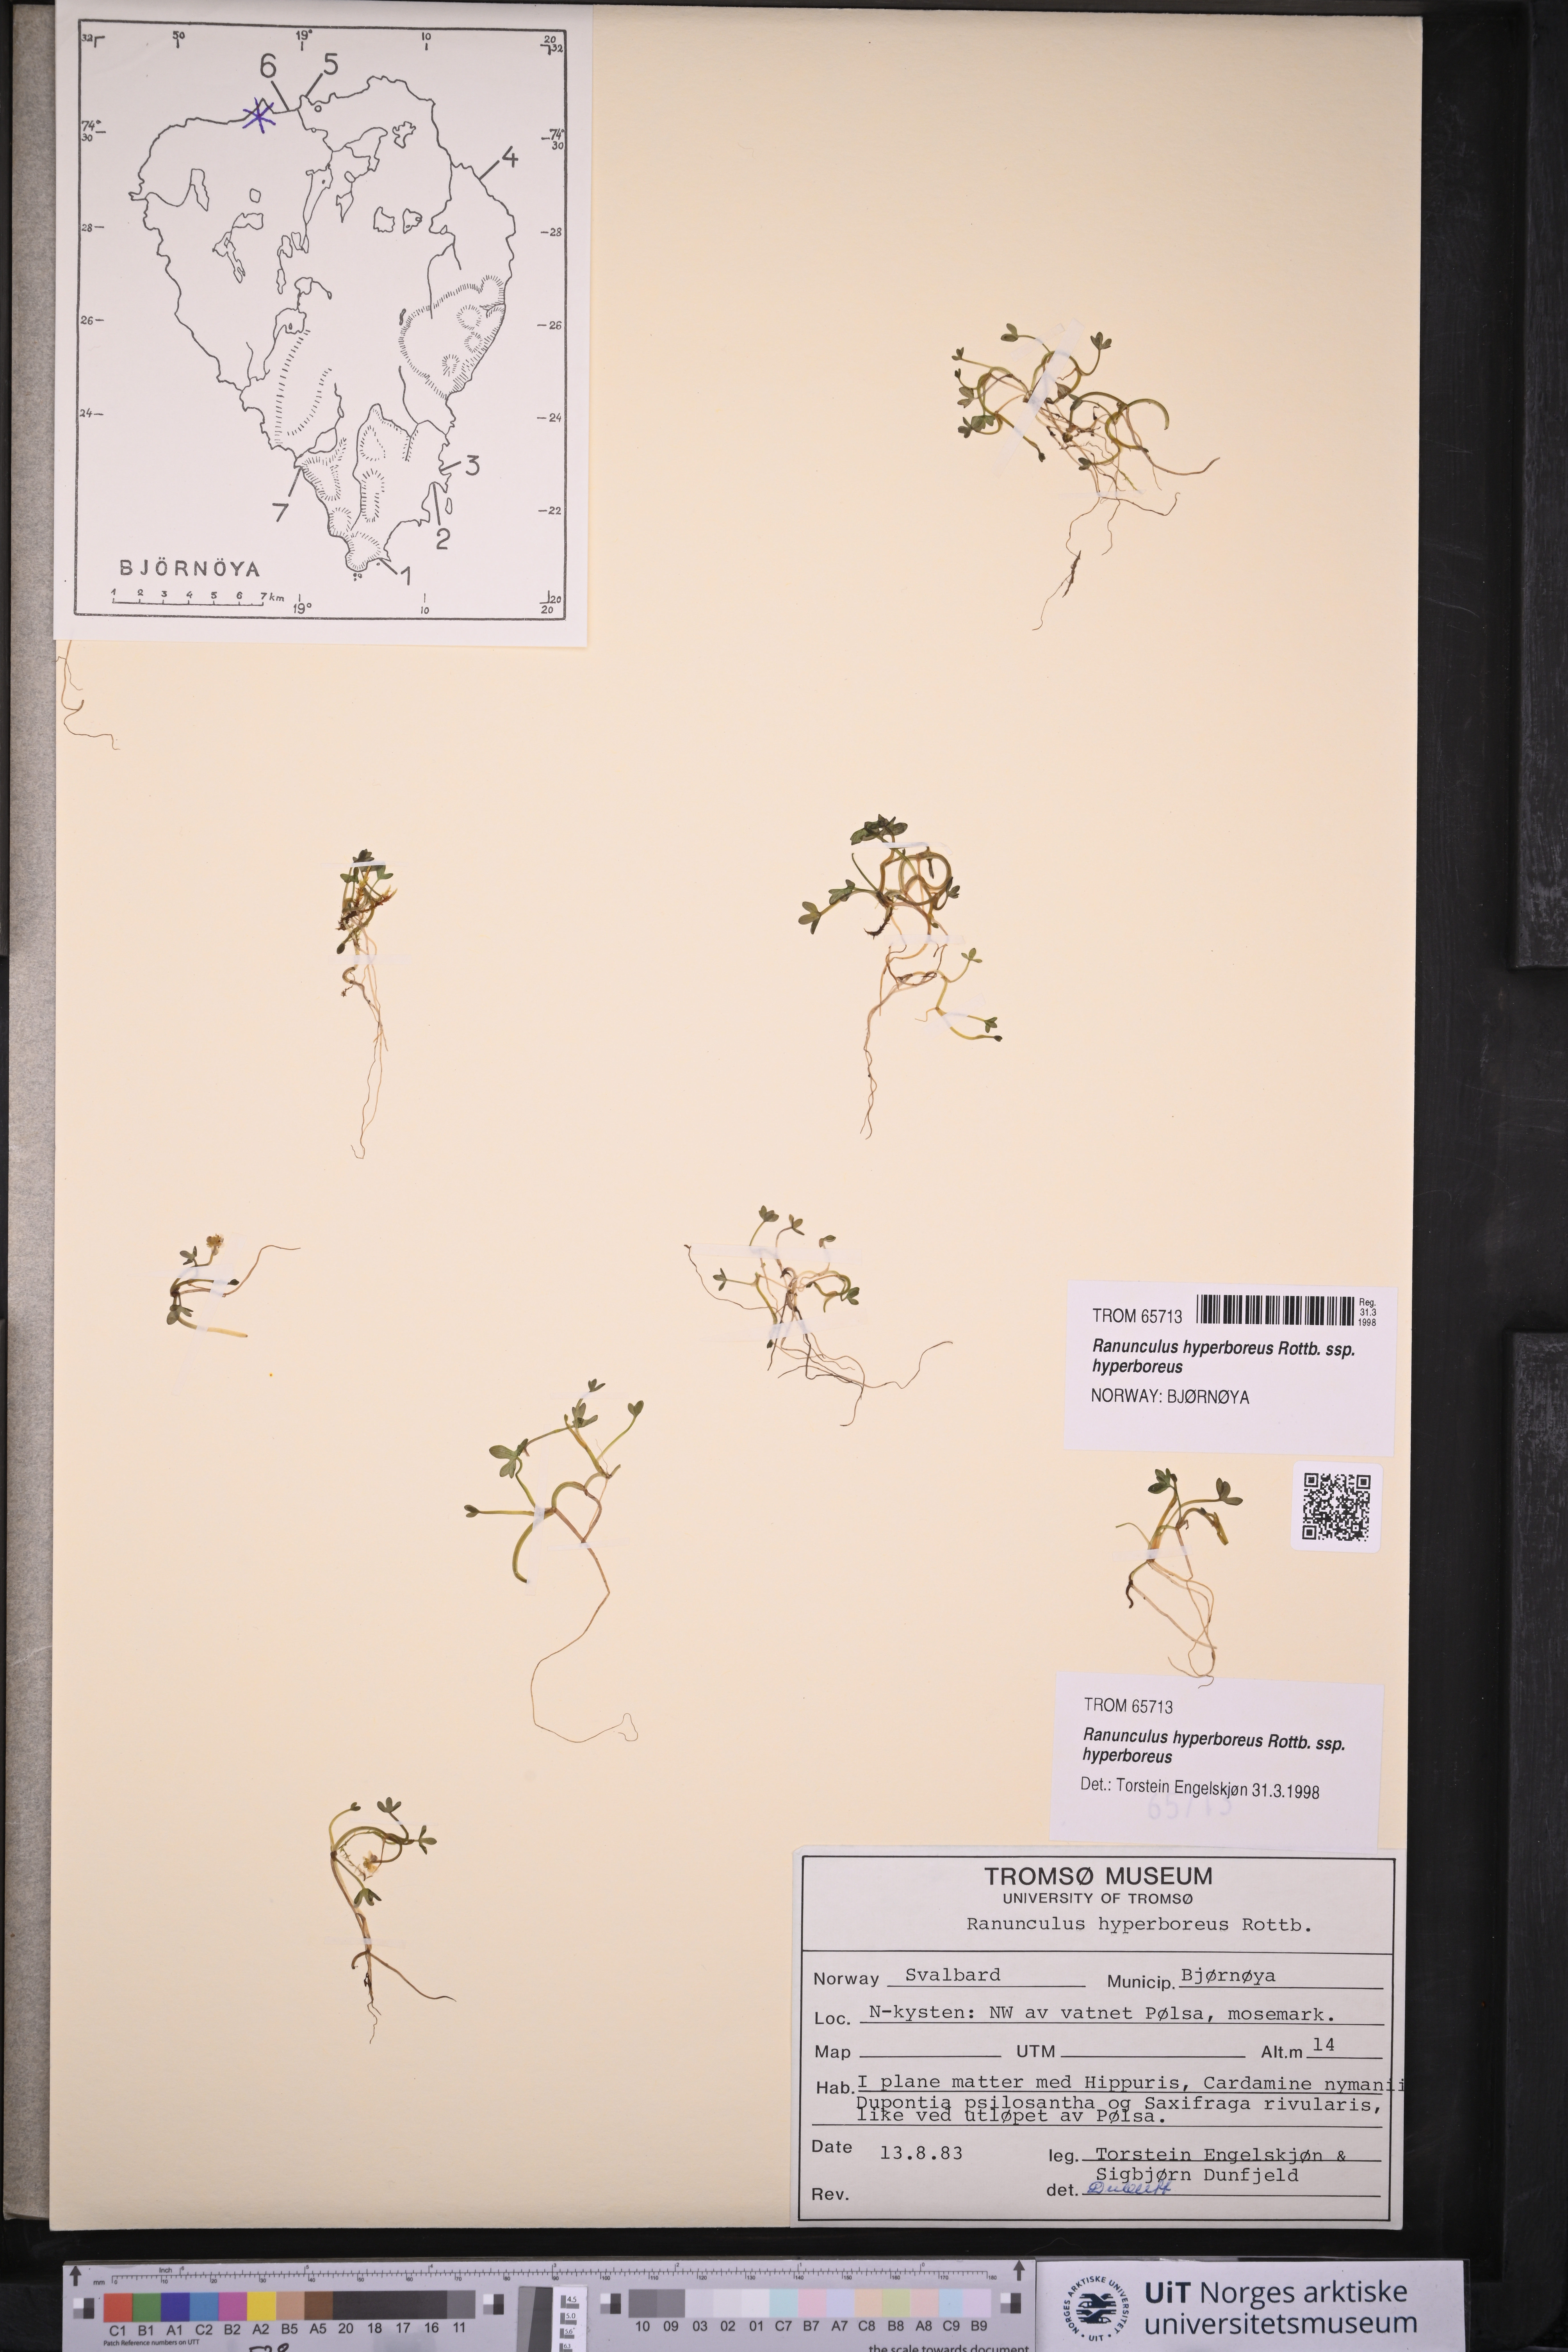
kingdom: Plantae
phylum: Tracheophyta
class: Magnoliopsida
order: Ranunculales
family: Ranunculaceae
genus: Ranunculus
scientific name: Ranunculus hyperboreus
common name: Arctic buttercup
